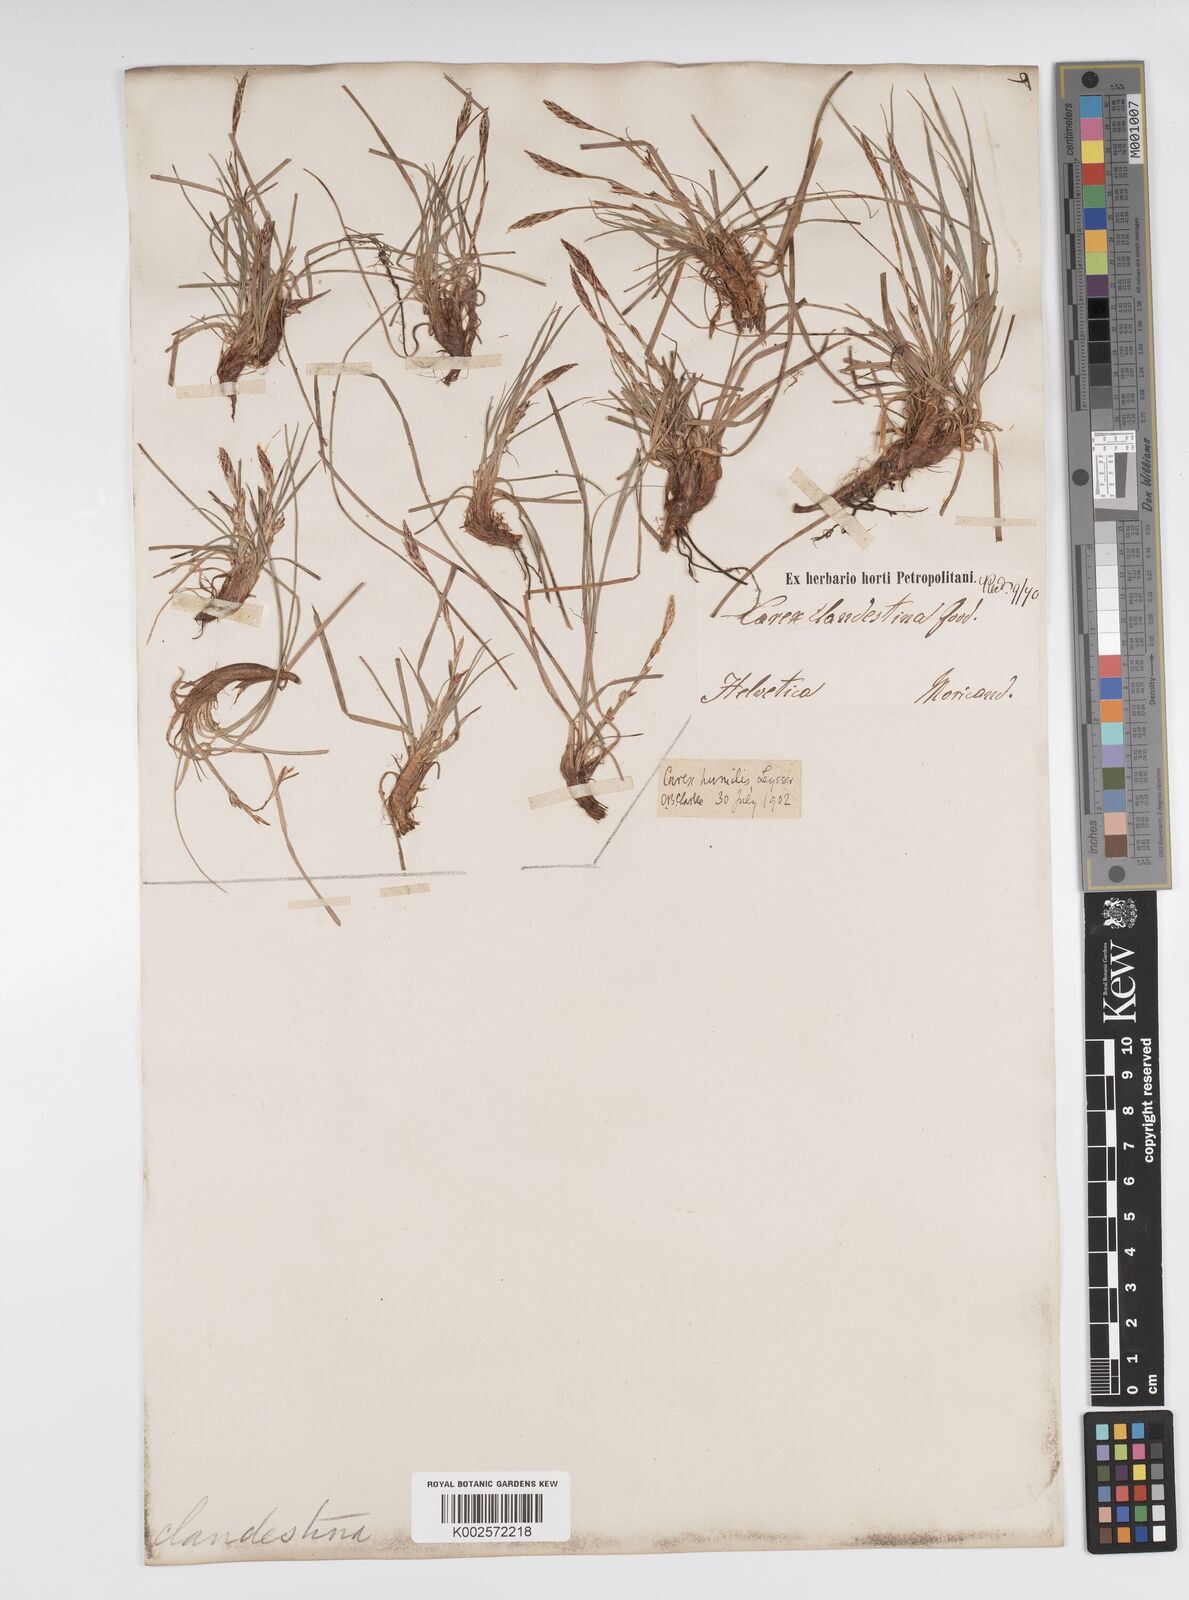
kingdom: Plantae
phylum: Tracheophyta
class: Liliopsida
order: Poales
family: Cyperaceae
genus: Carex
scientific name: Carex humilis
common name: Dwarf sedge
